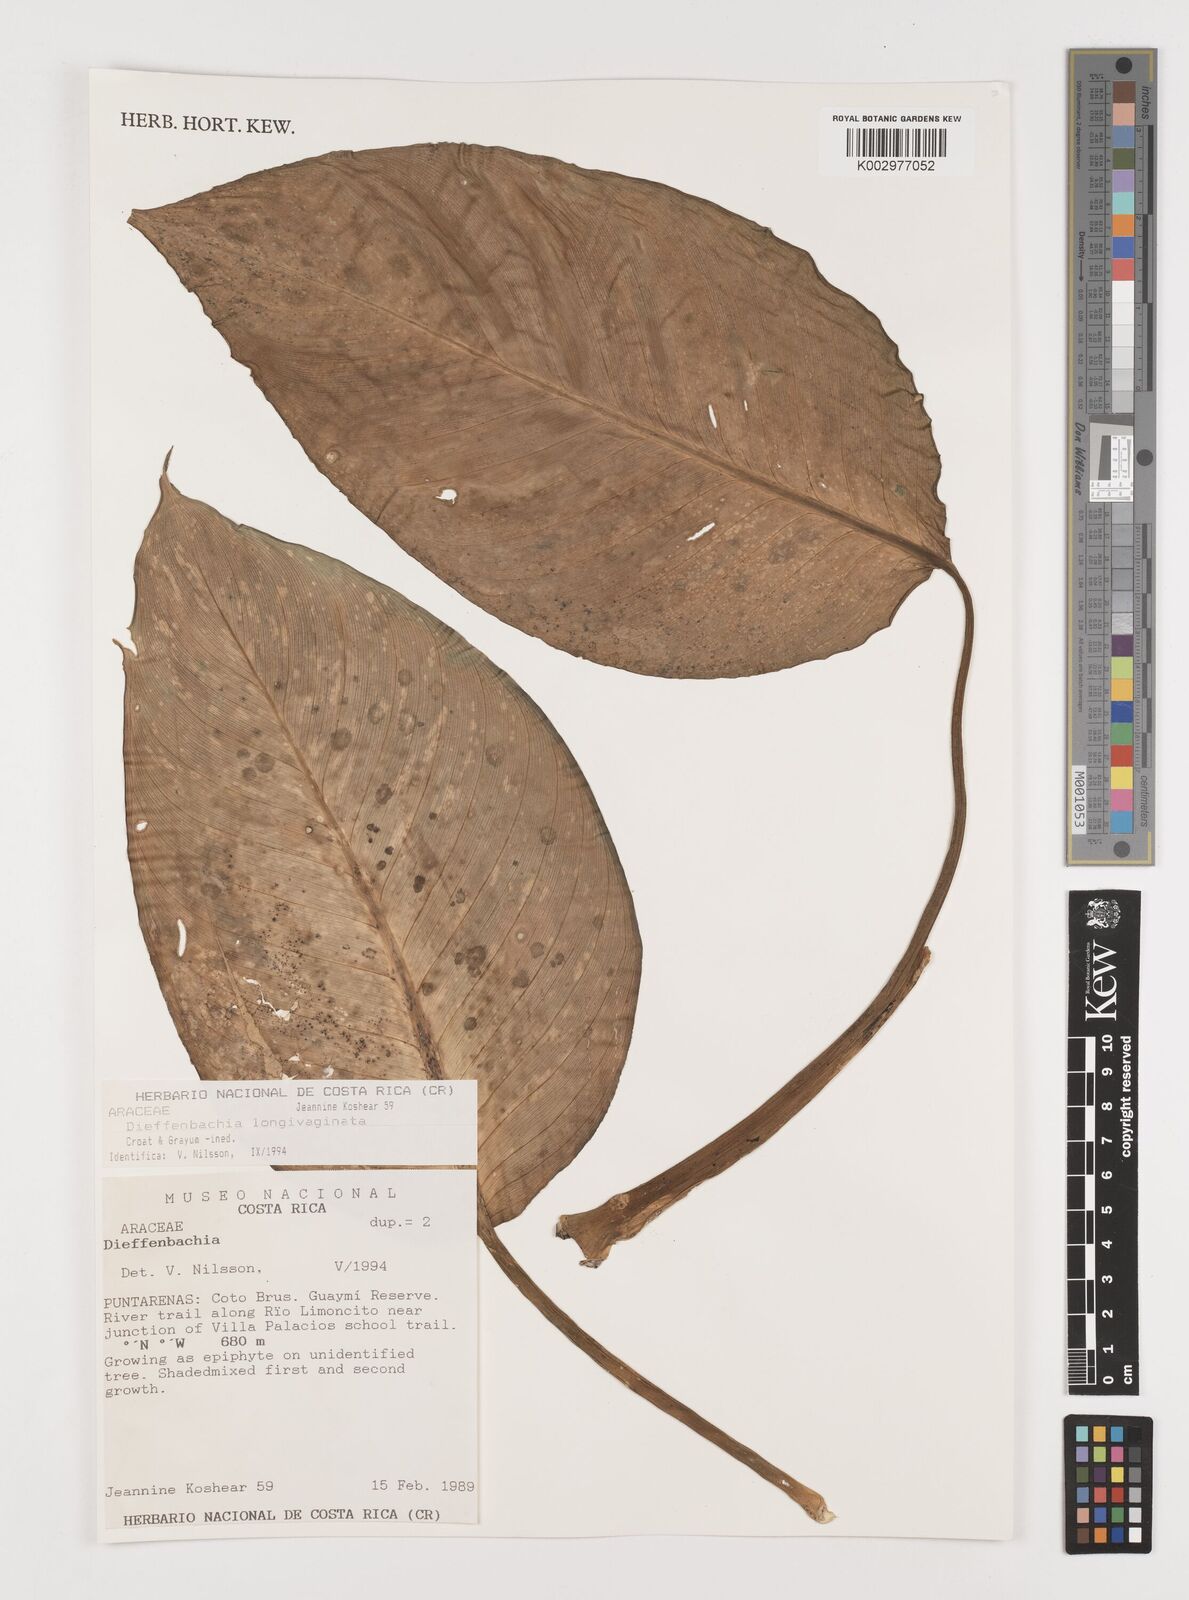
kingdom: Plantae
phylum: Tracheophyta
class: Liliopsida
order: Alismatales
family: Araceae
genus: Dieffenbachia
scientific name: Dieffenbachia
